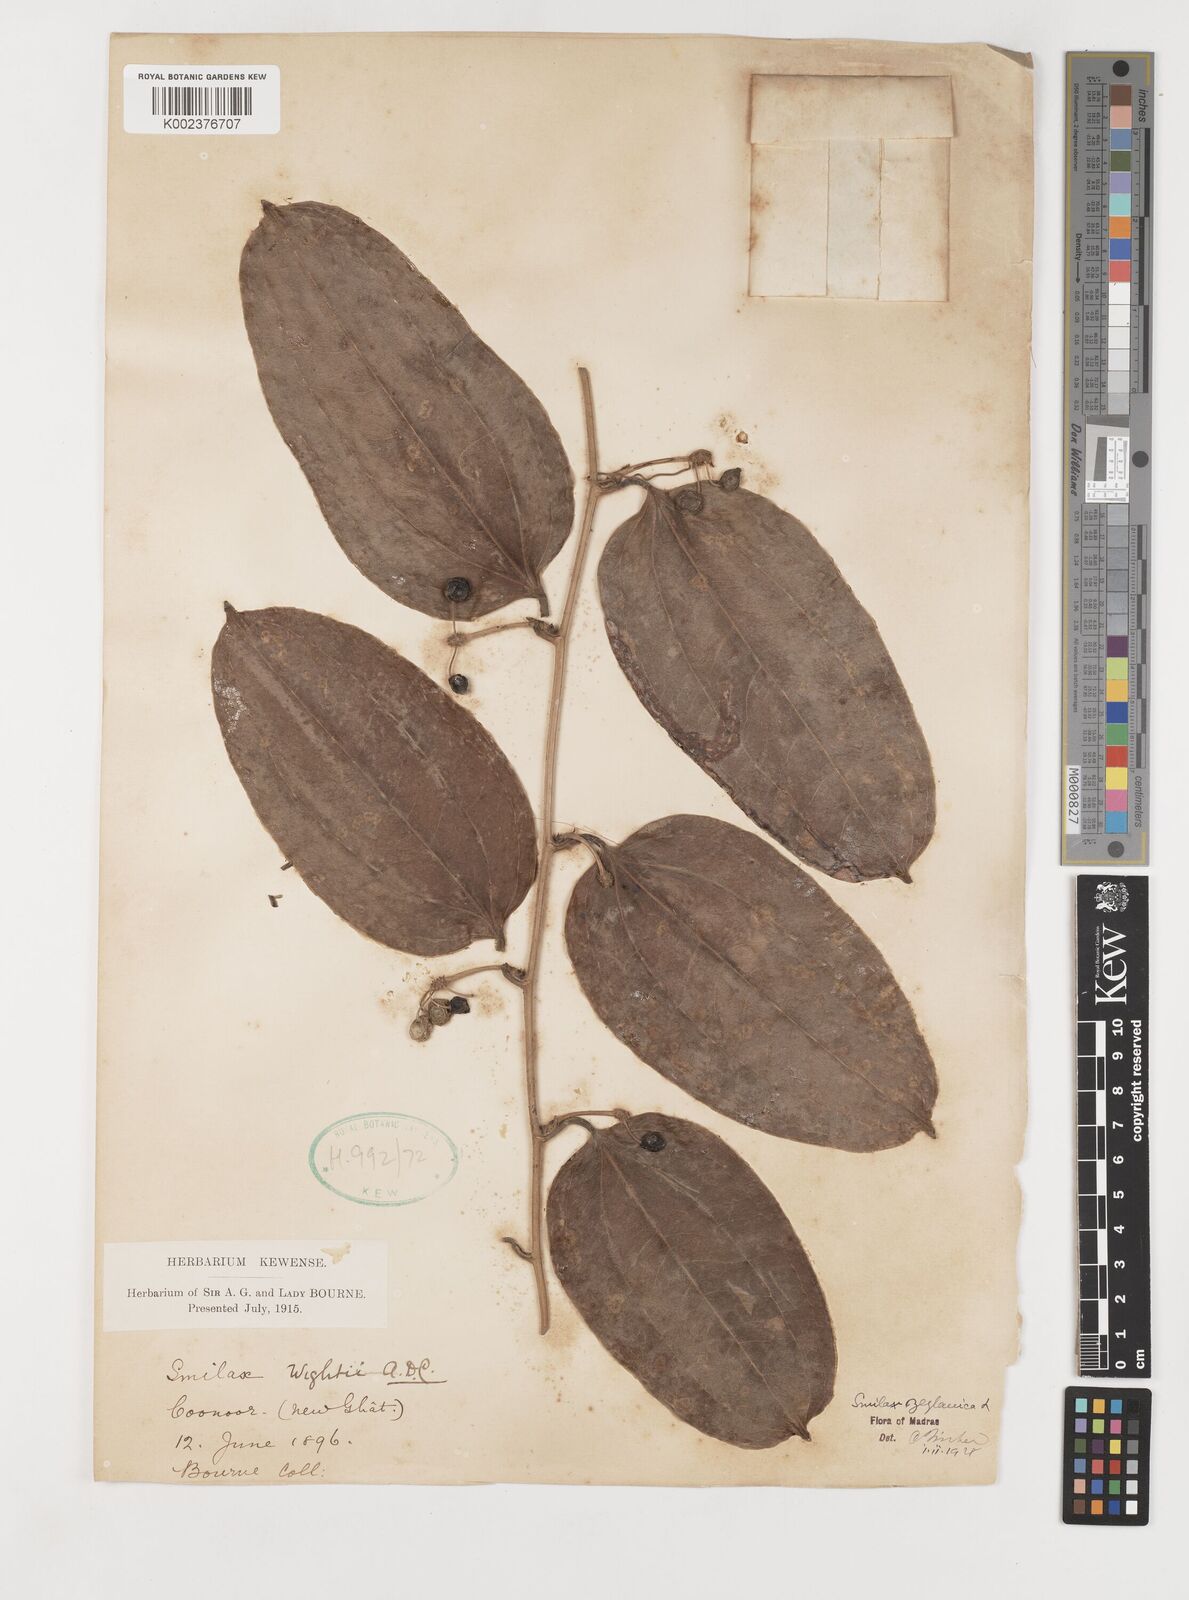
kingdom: Plantae
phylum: Tracheophyta
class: Liliopsida
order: Liliales
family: Smilacaceae
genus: Smilax
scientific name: Smilax zeylanica
